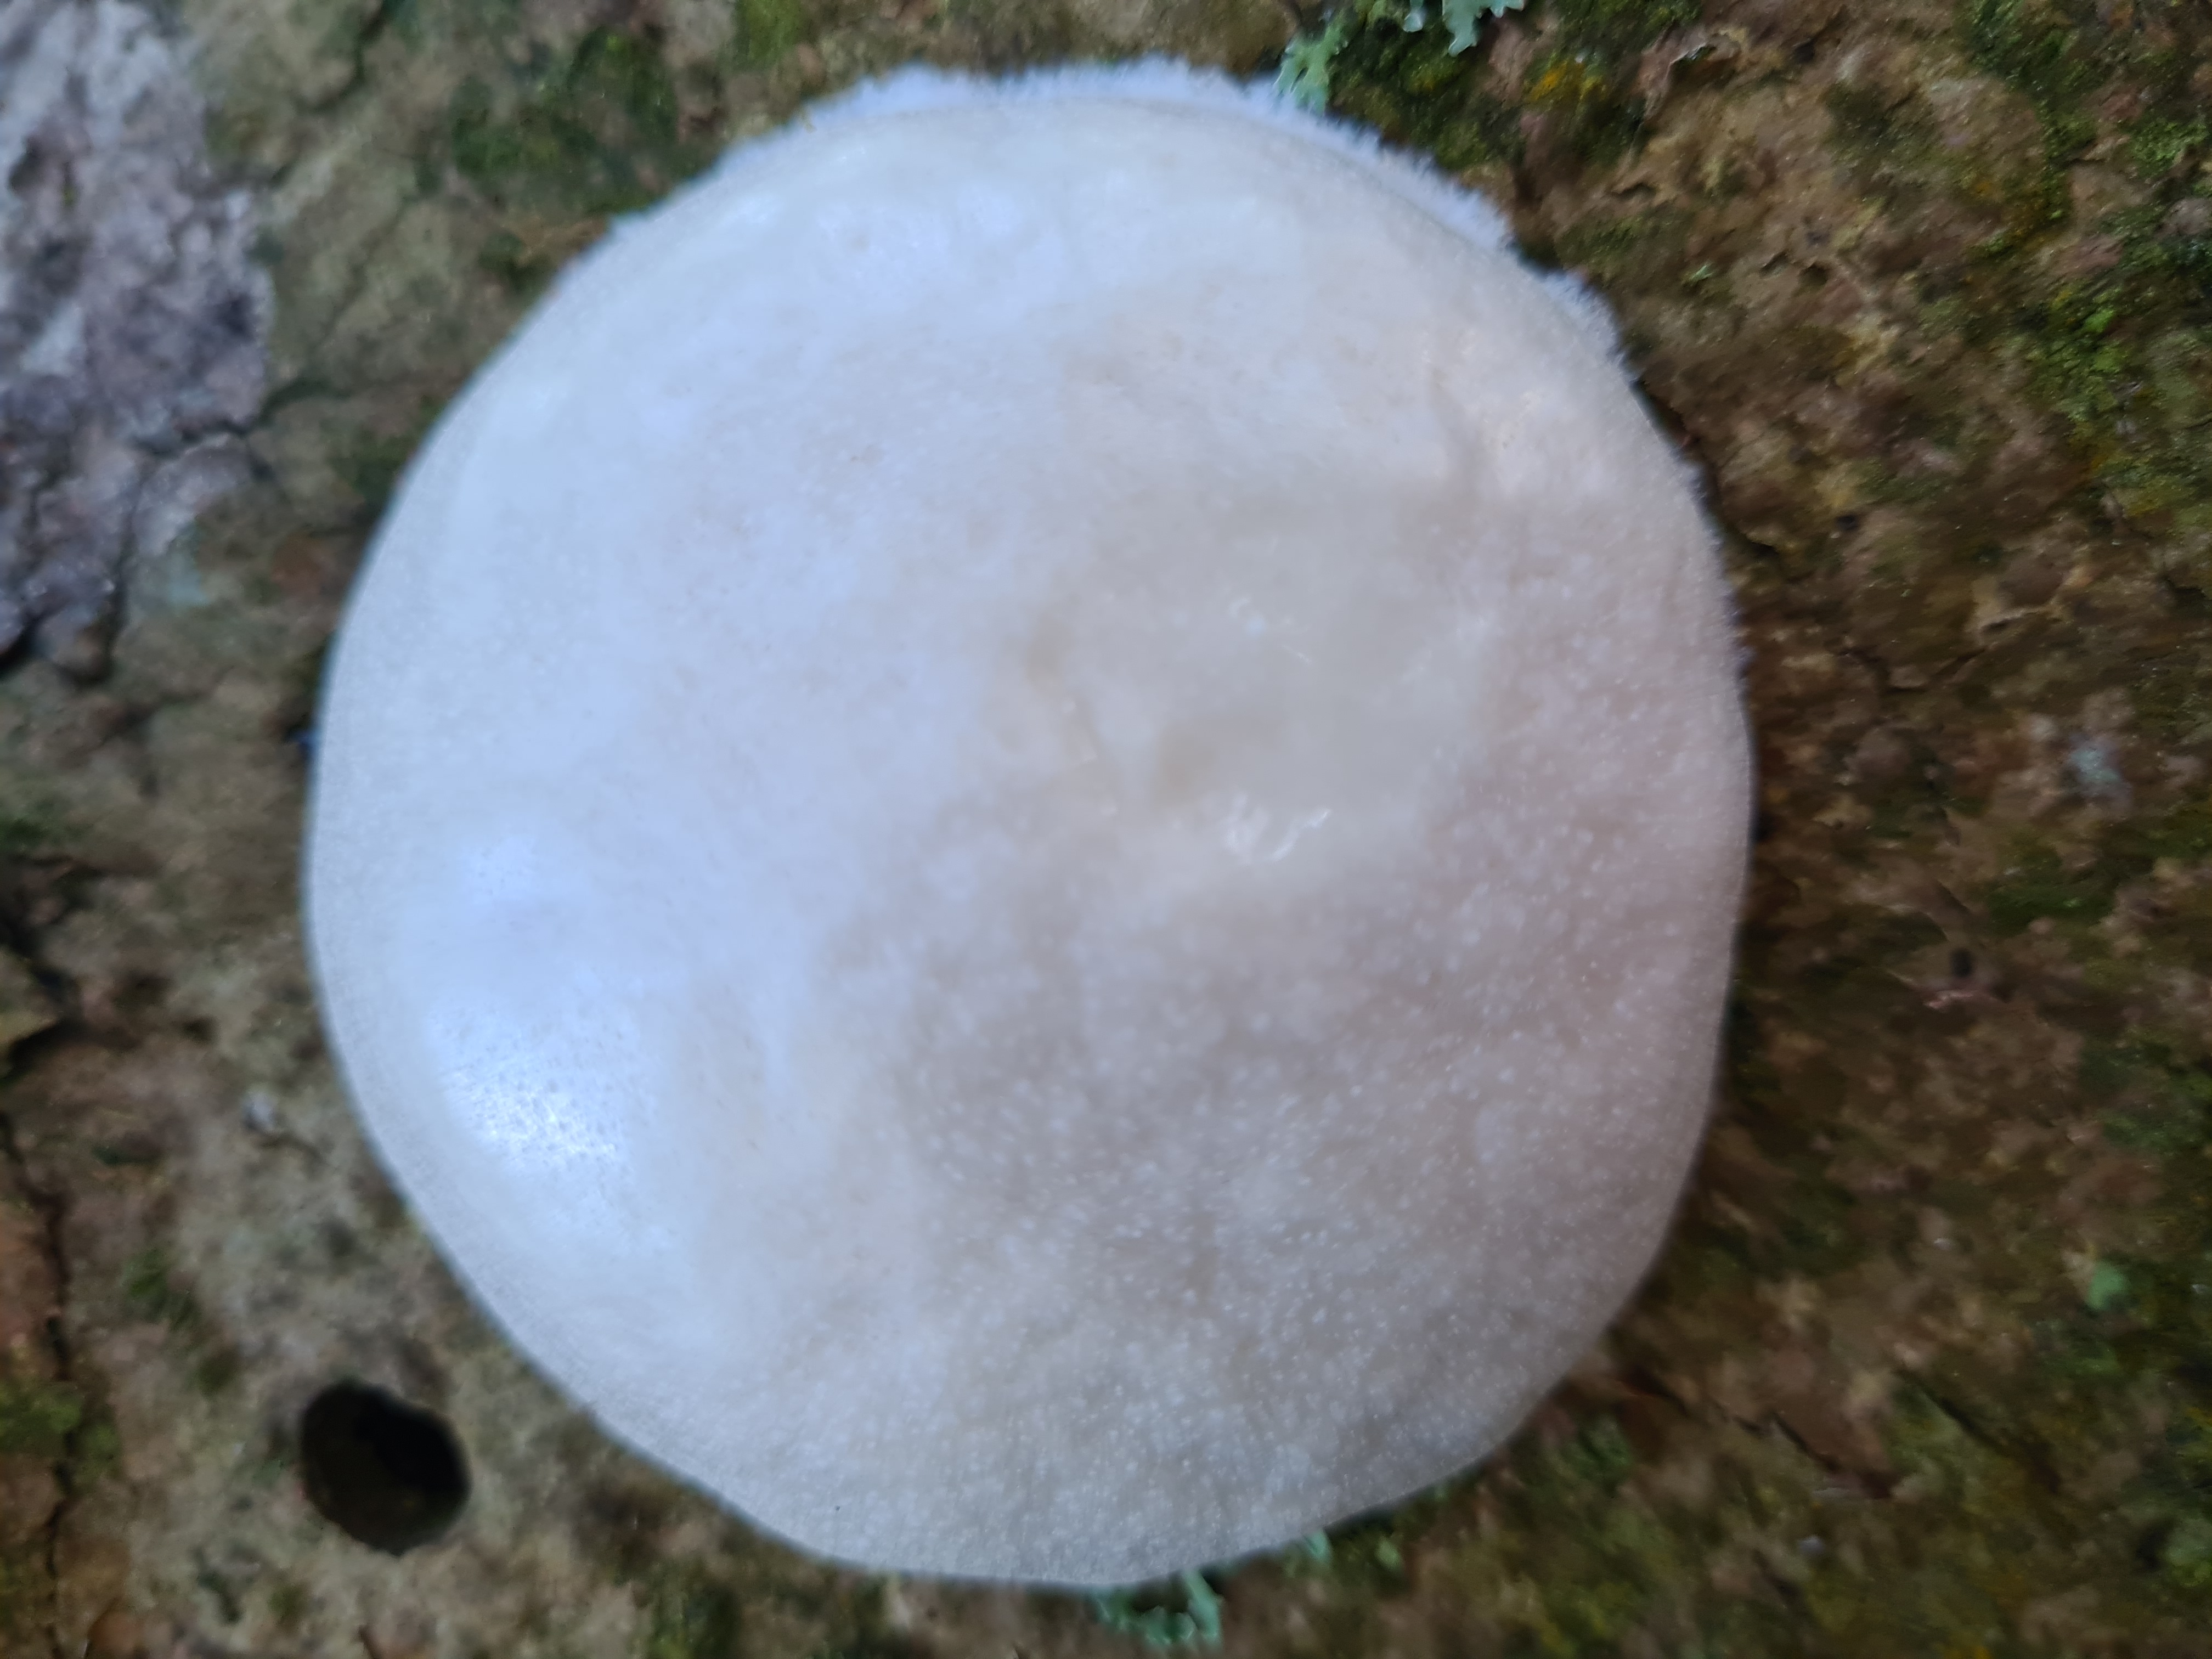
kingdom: Protozoa
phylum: Mycetozoa
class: Myxomycetes
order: Cribrariales
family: Tubiferaceae
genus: Reticularia
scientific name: Reticularia lycoperdon
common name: Skinnende støvpude
